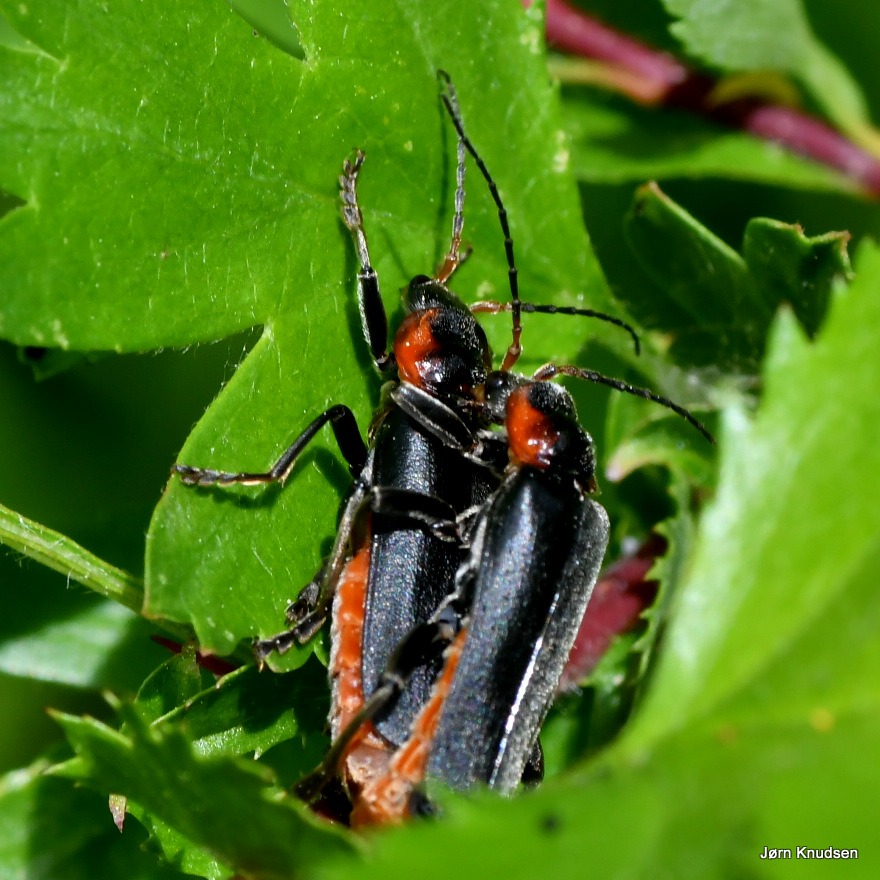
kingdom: Animalia
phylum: Arthropoda
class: Insecta
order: Coleoptera
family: Cantharidae
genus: Cantharis
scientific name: Cantharis fusca
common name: Stor blødvinge
